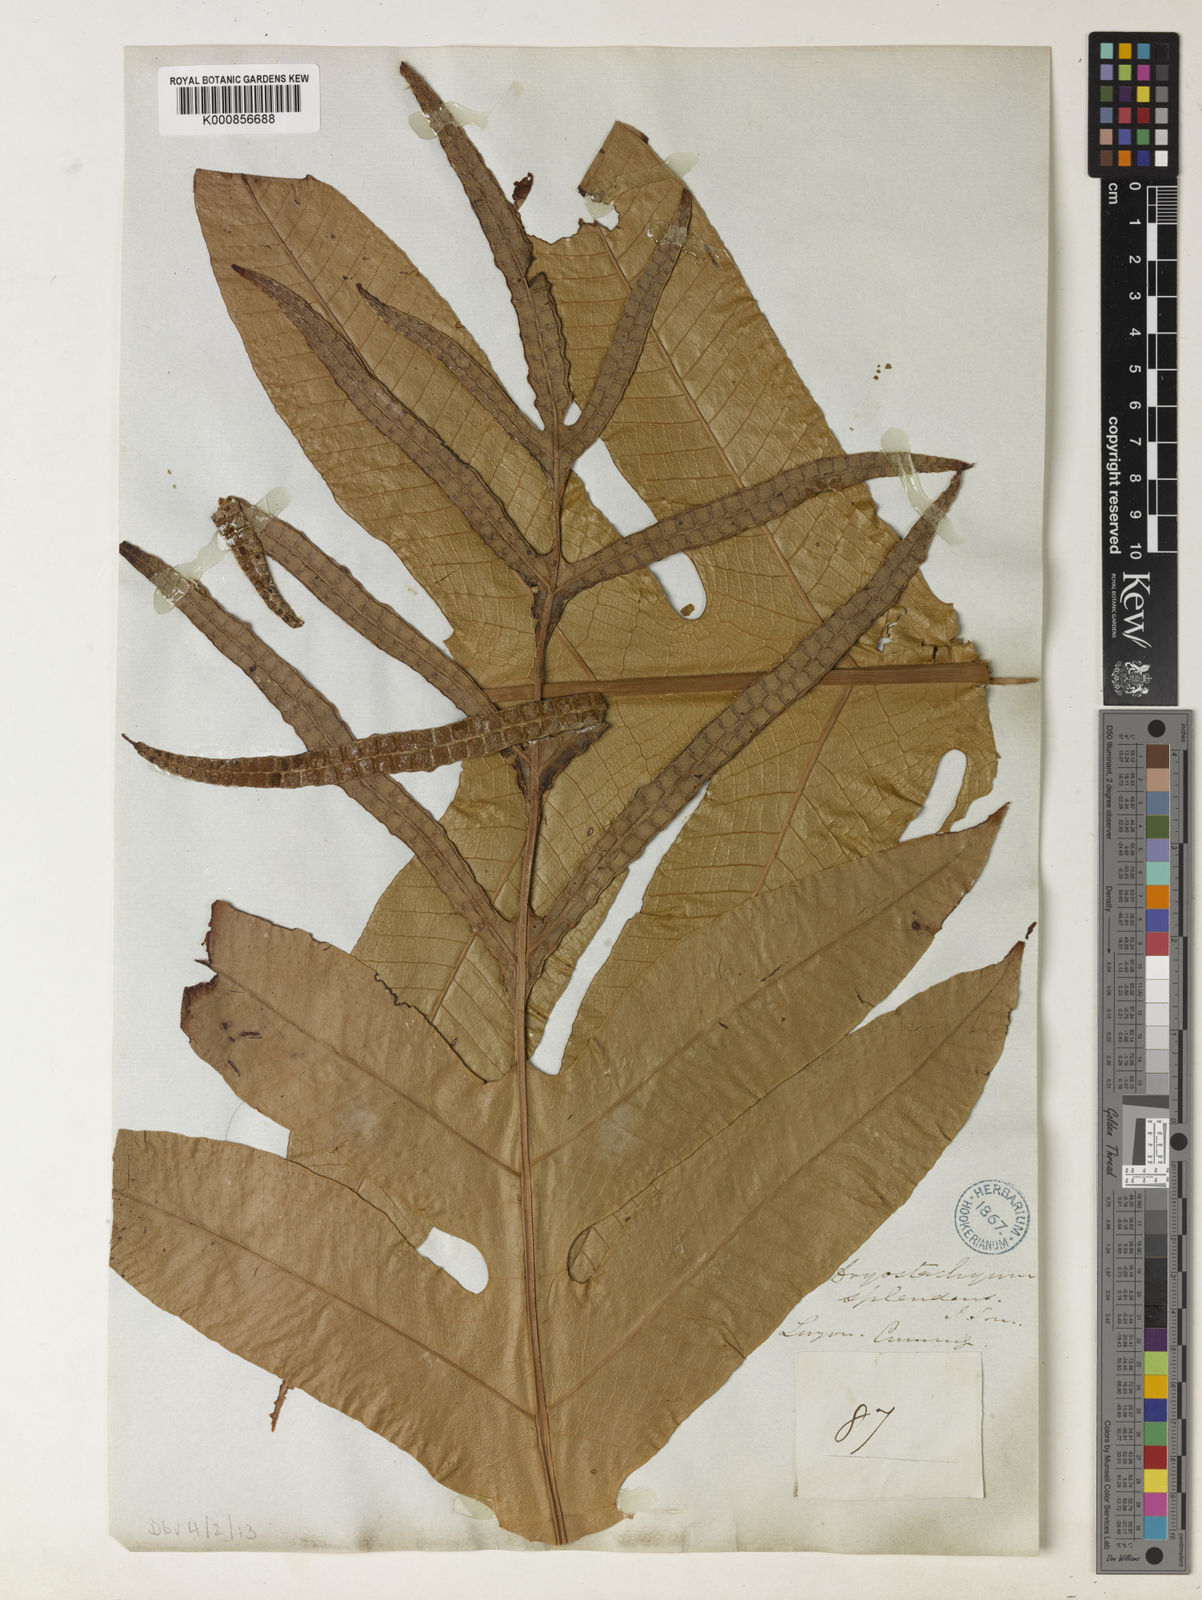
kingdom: Plantae
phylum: Tracheophyta
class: Polypodiopsida
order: Polypodiales
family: Polypodiaceae
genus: Drynaria
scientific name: Drynaria splendens
